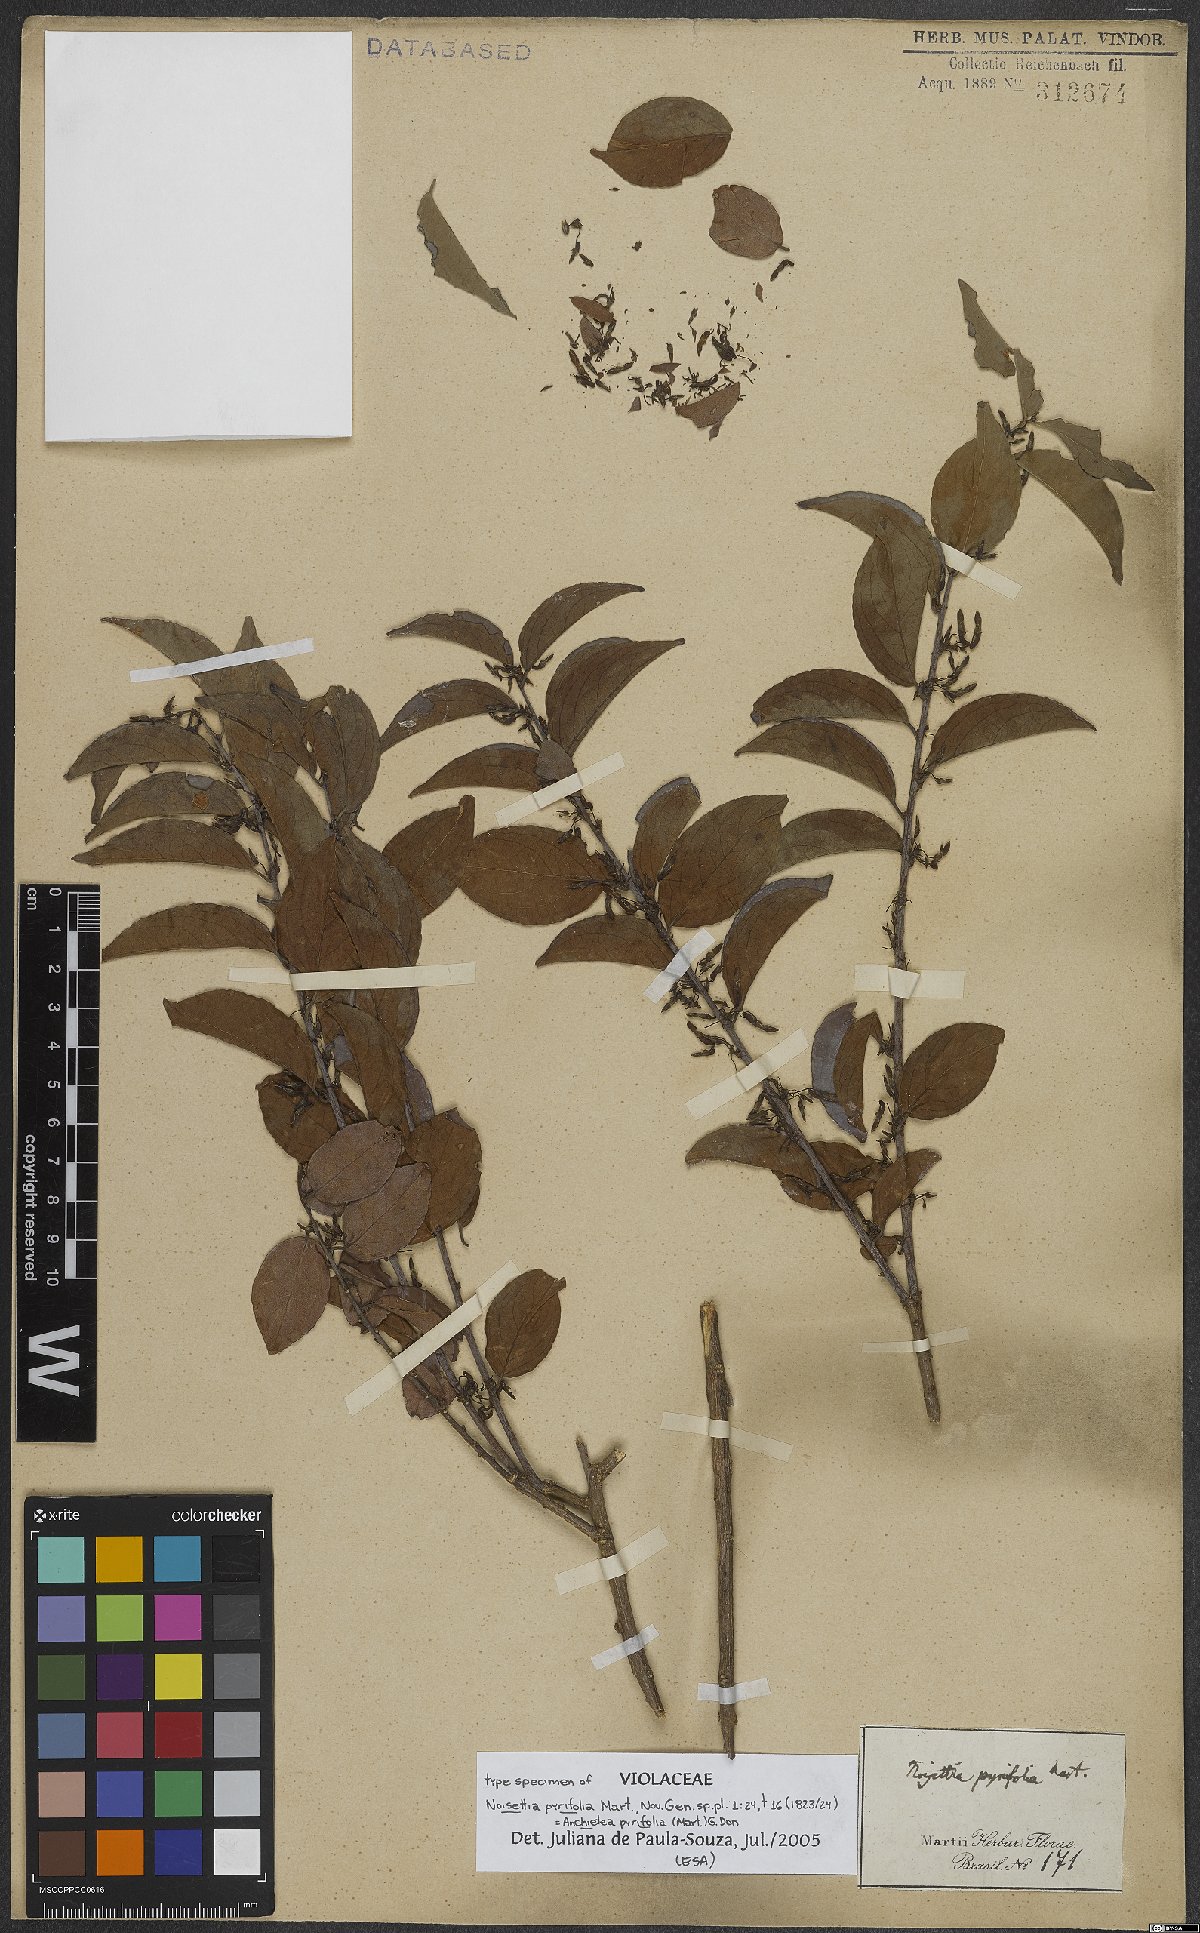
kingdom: Plantae
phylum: Tracheophyta
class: Magnoliopsida
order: Malpighiales
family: Violaceae
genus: Anchietea
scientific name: Anchietea pyrifolia
